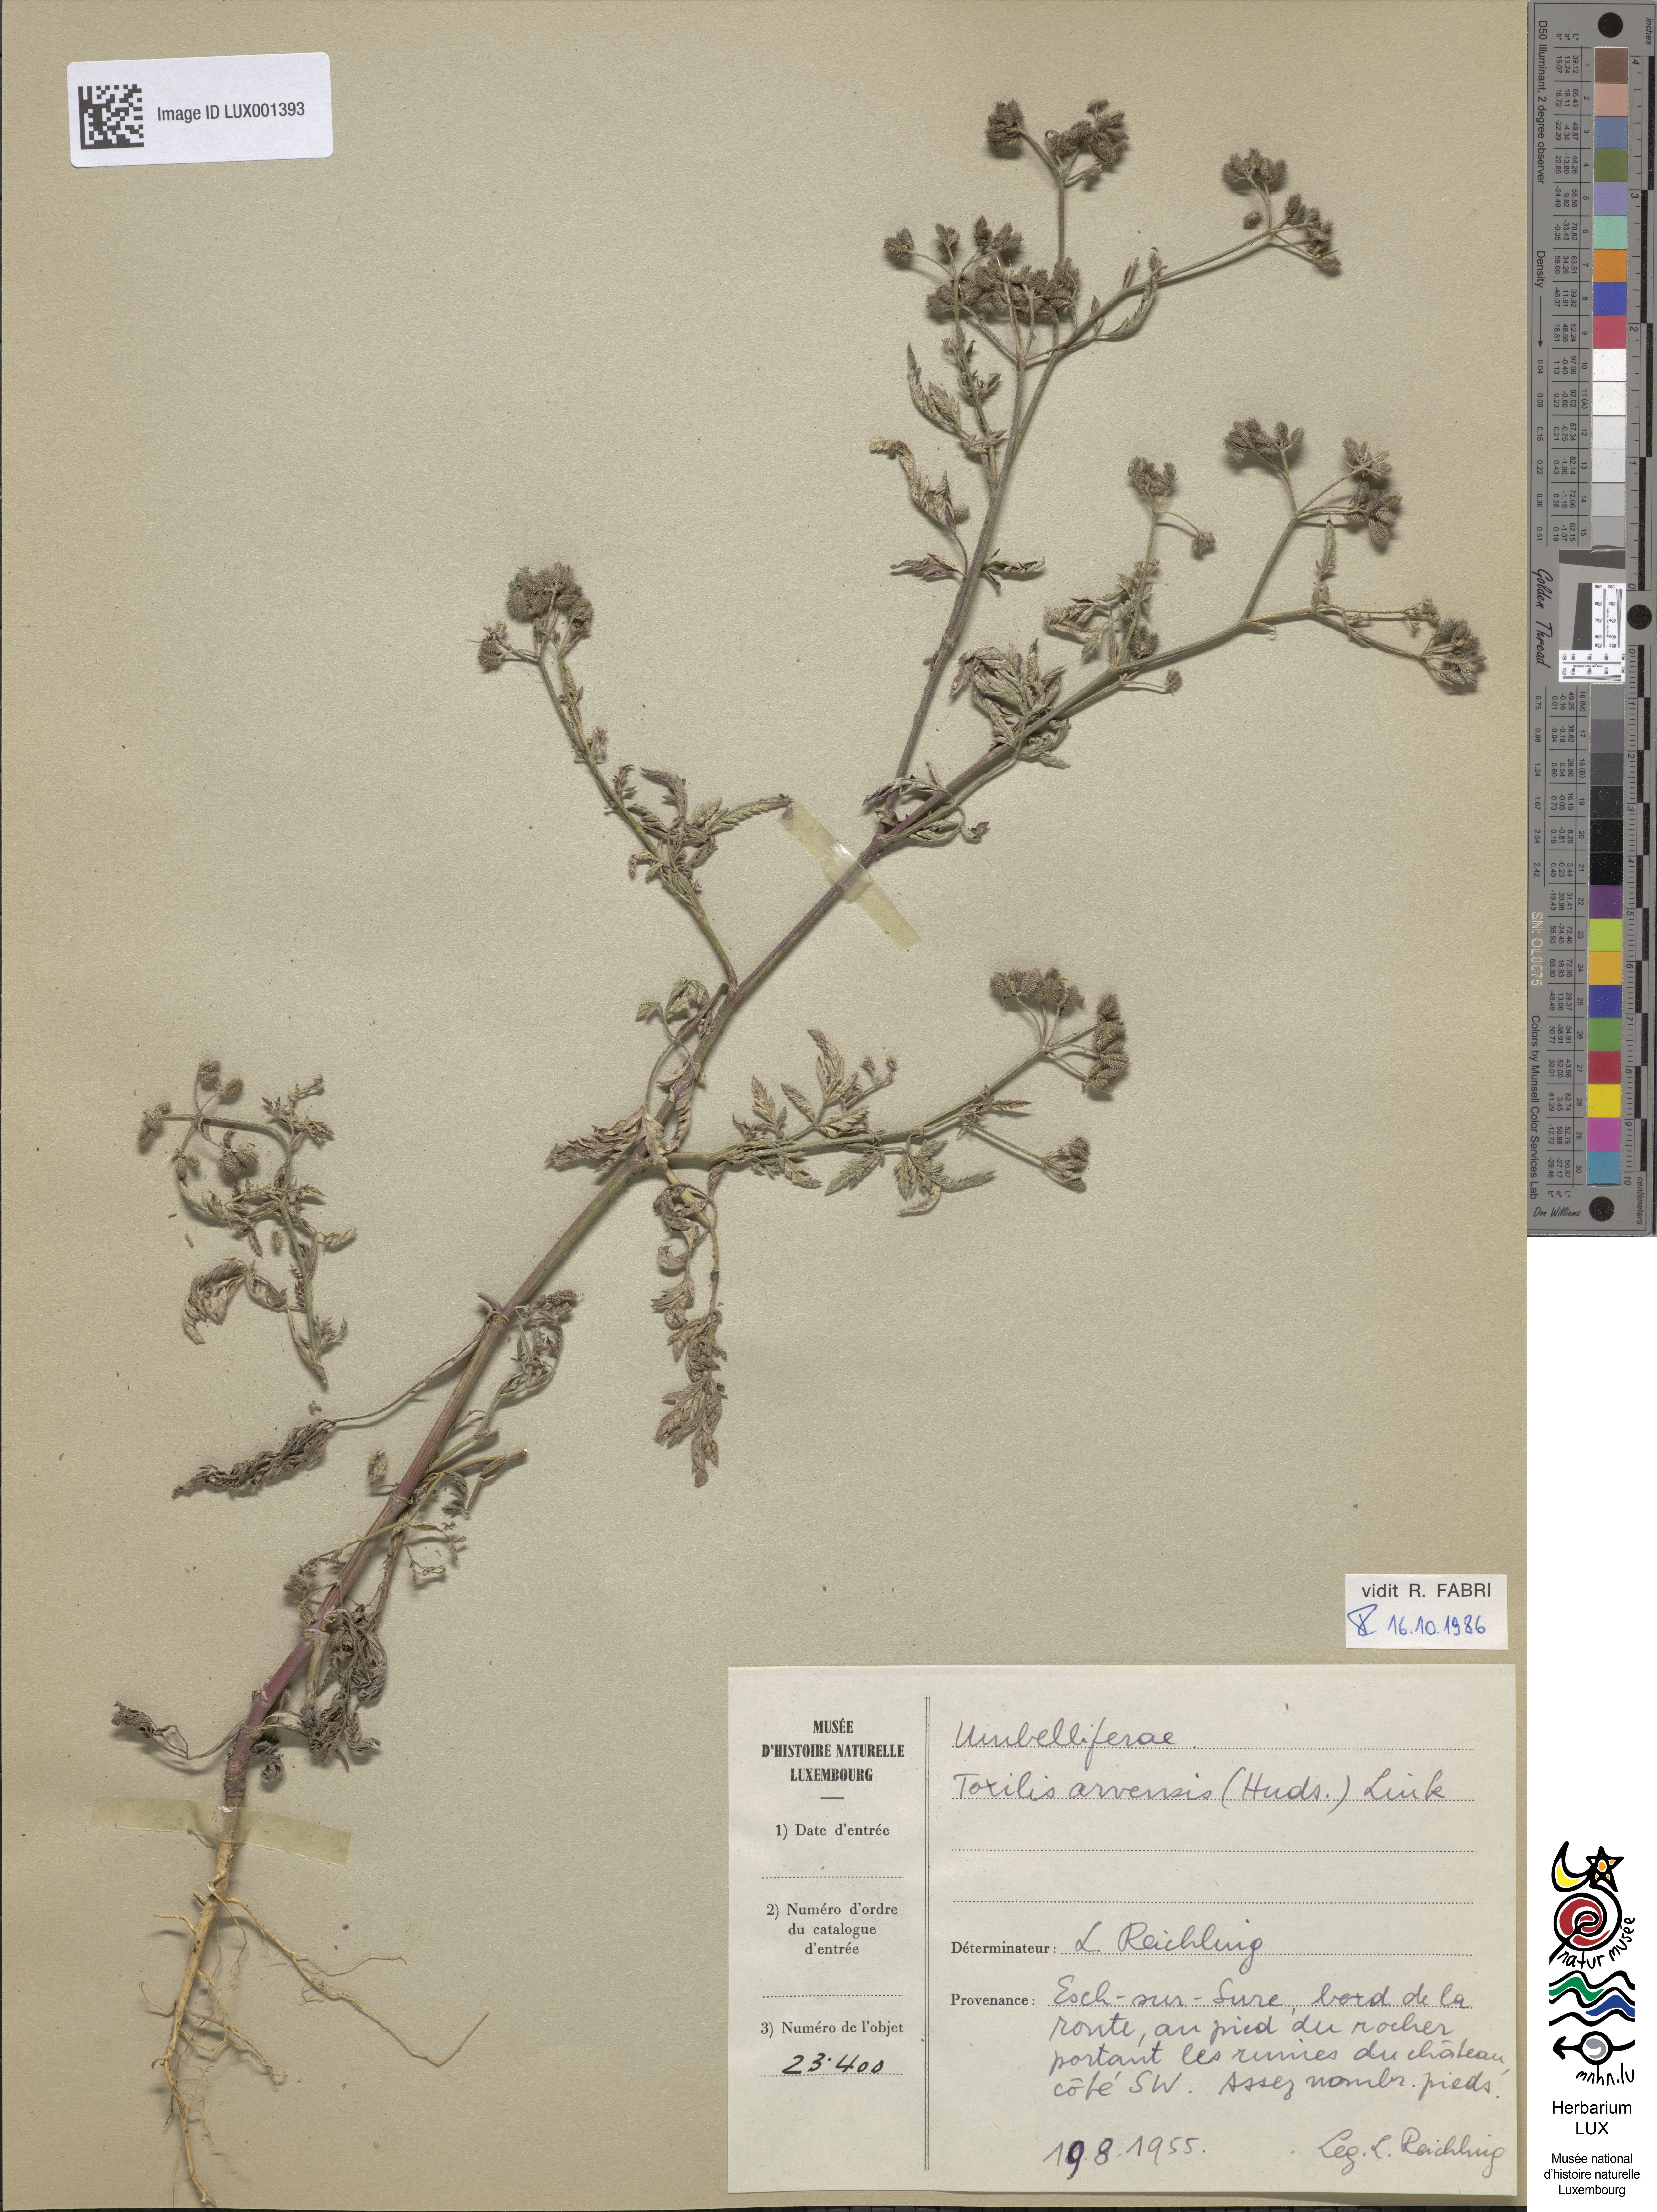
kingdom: Plantae
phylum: Tracheophyta
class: Magnoliopsida
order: Apiales
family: Apiaceae
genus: Torilis
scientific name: Torilis arvensis
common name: Spreading hedge-parsley
